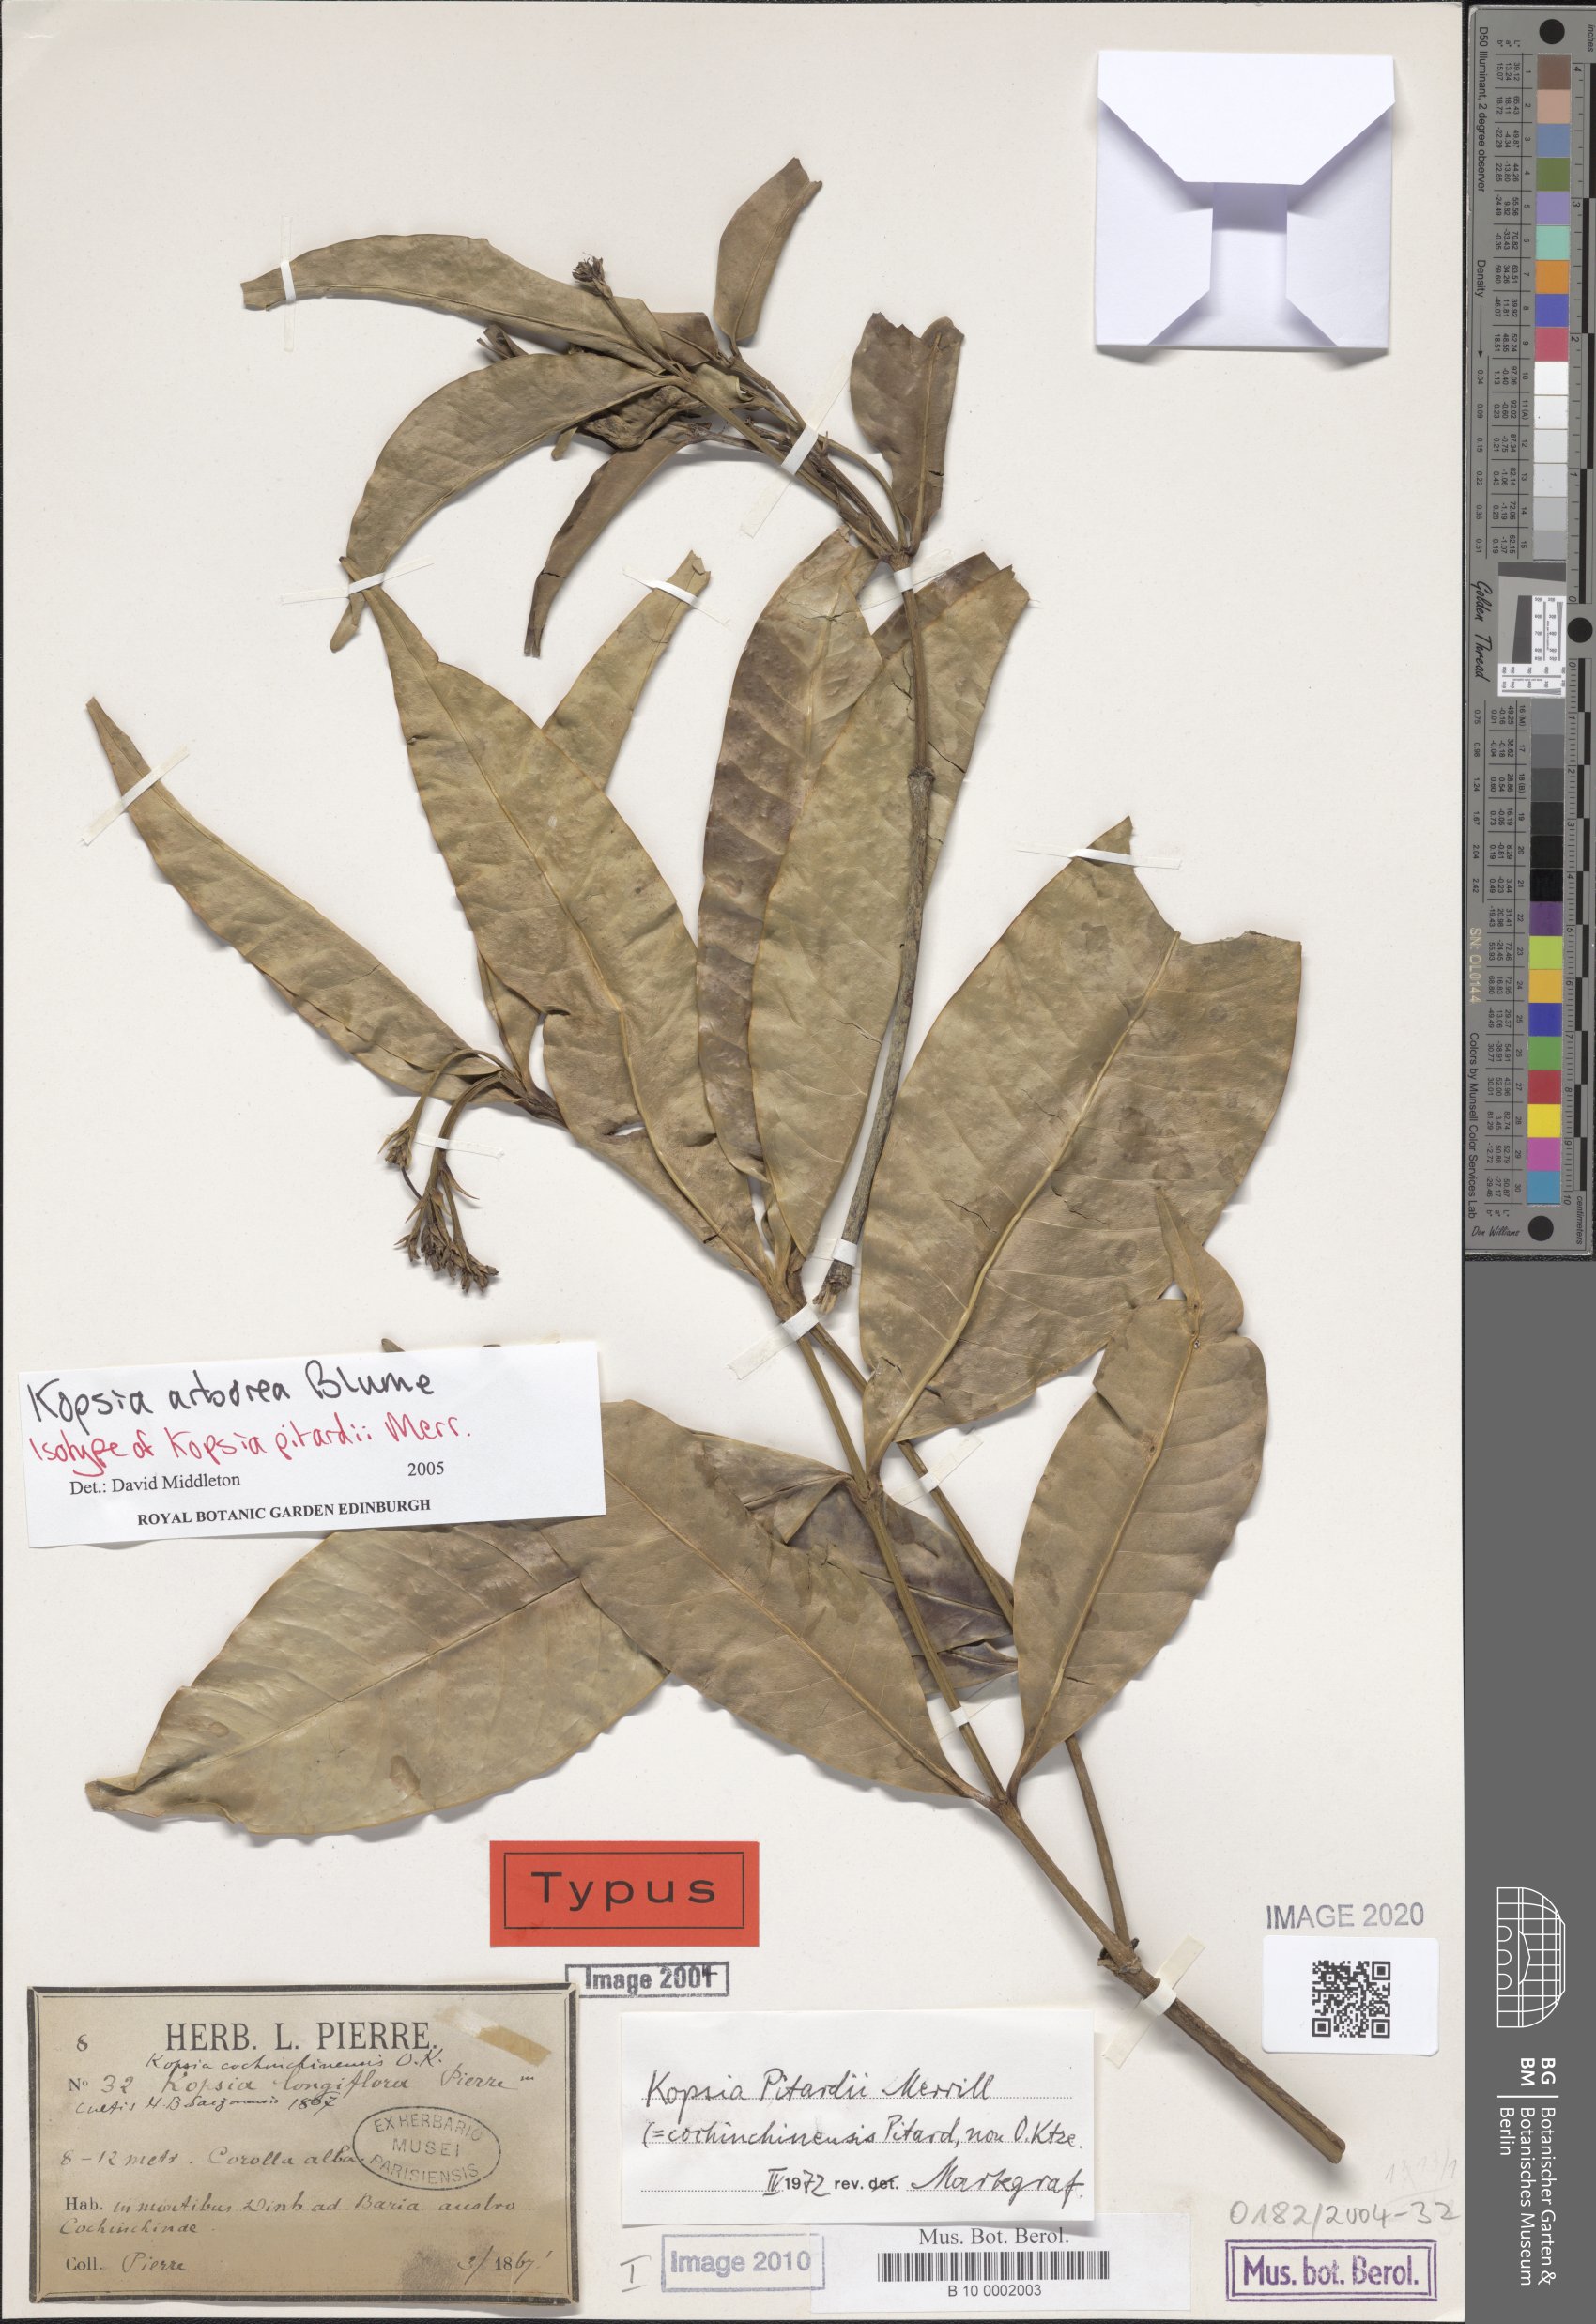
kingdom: Plantae
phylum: Tracheophyta
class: Magnoliopsida
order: Gentianales
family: Apocynaceae
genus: Kopsia
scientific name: Kopsia arborea
